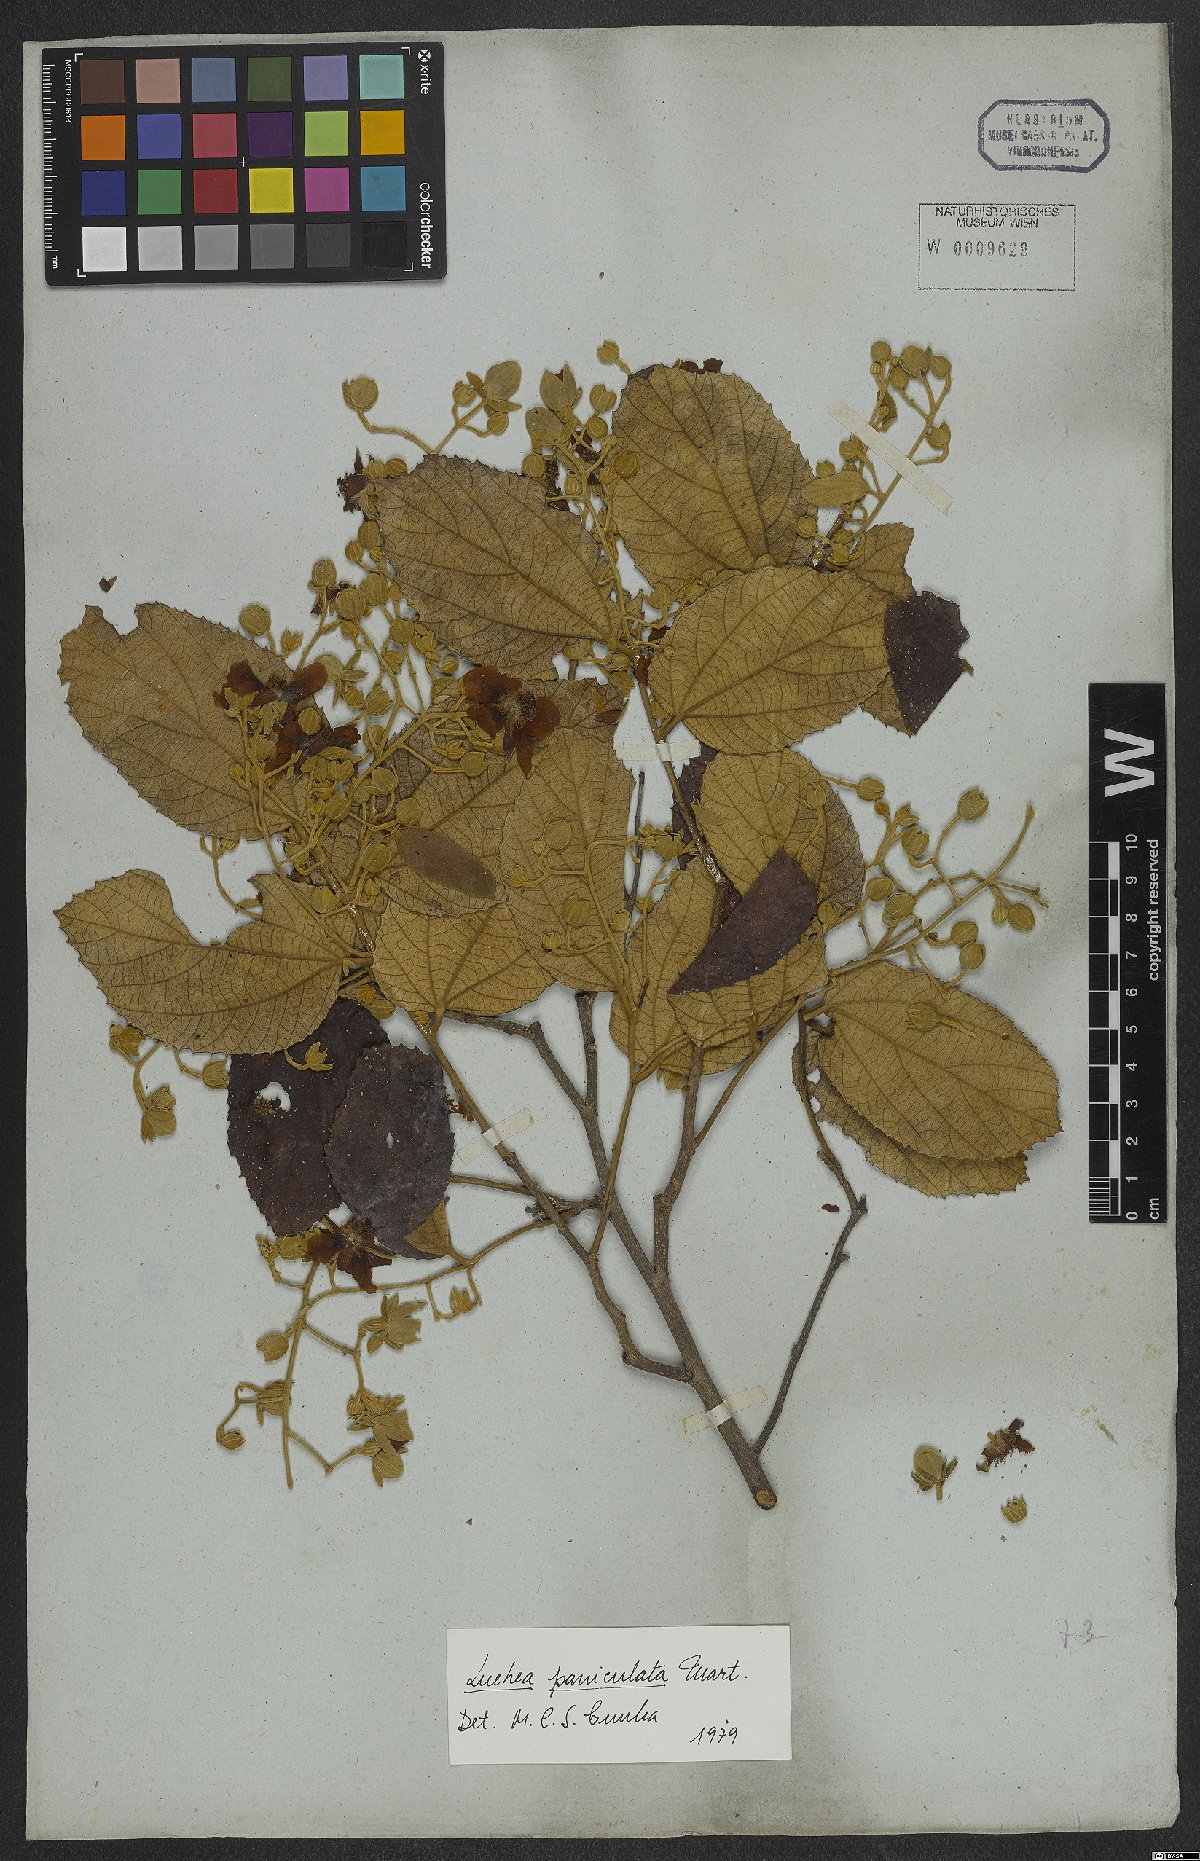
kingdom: Plantae
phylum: Tracheophyta
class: Magnoliopsida
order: Malvales
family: Malvaceae
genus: Luehea
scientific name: Luehea paniculata
